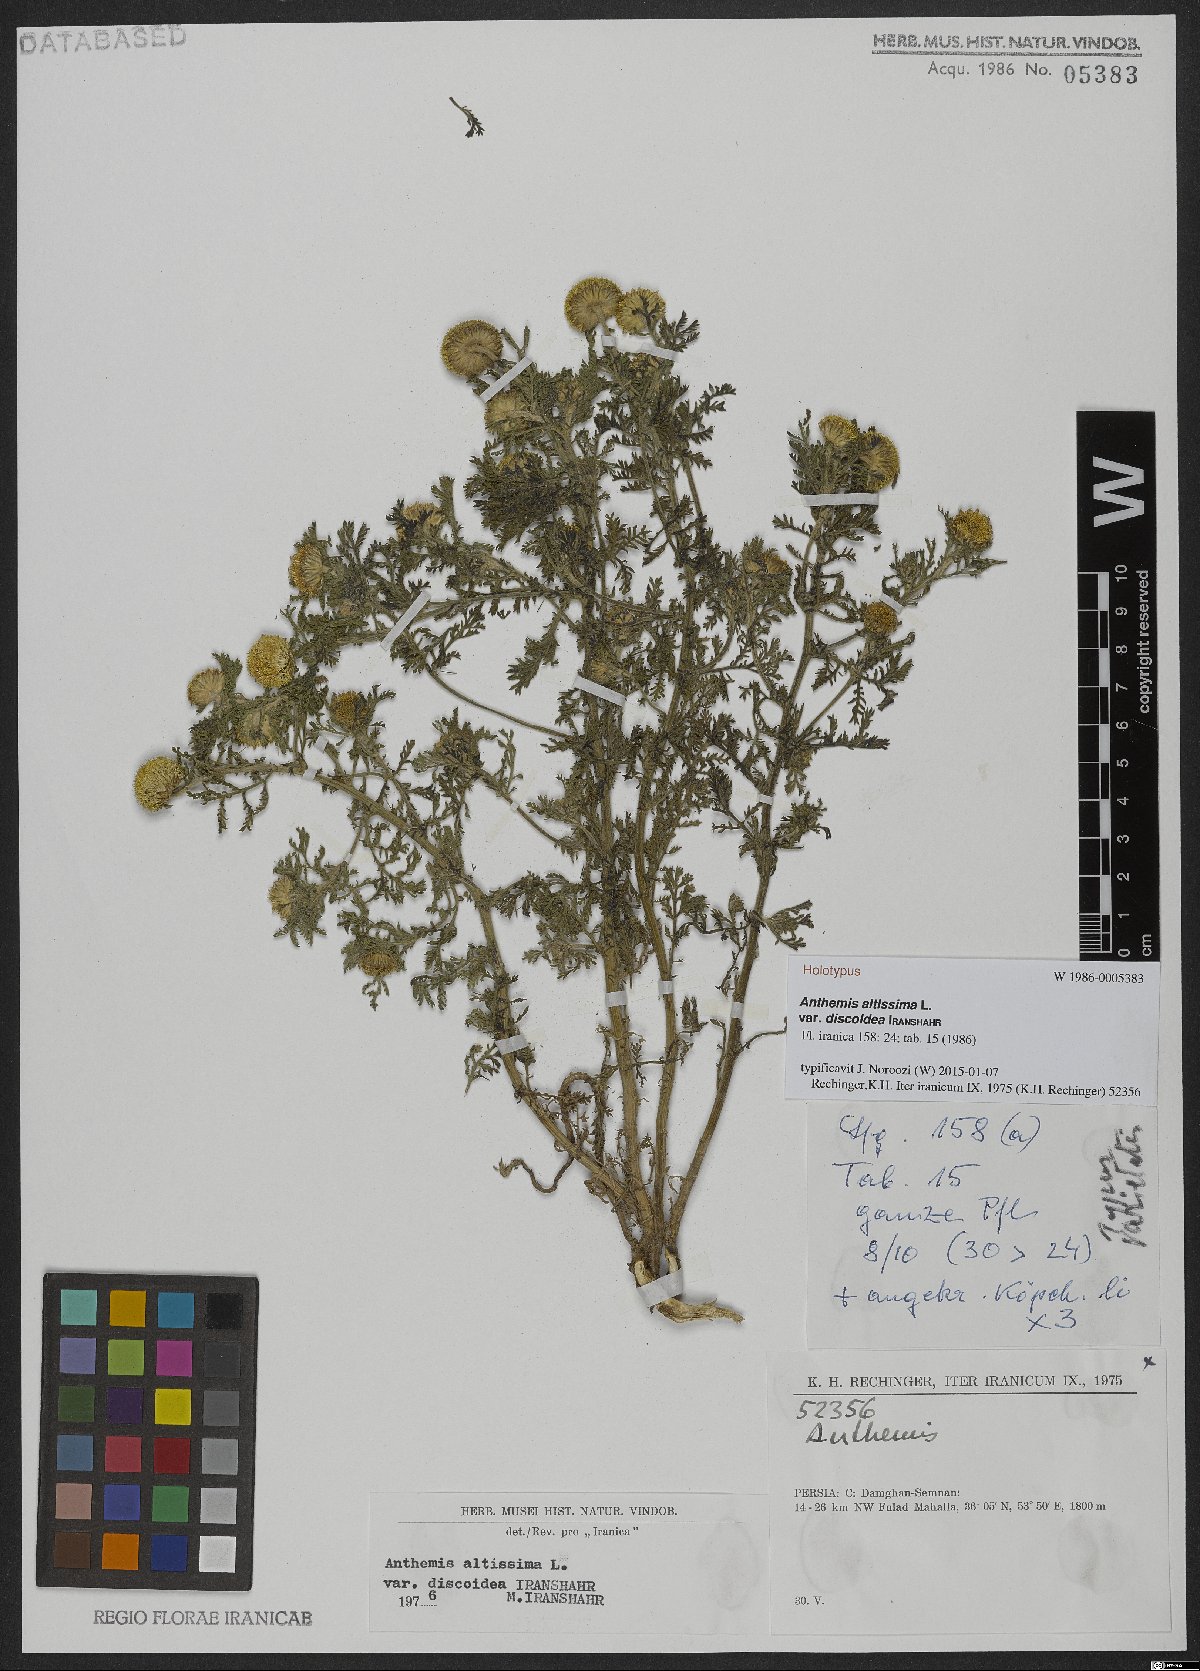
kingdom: Plantae
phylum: Tracheophyta
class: Magnoliopsida
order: Asterales
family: Asteraceae
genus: Cota
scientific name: Cota altissima
